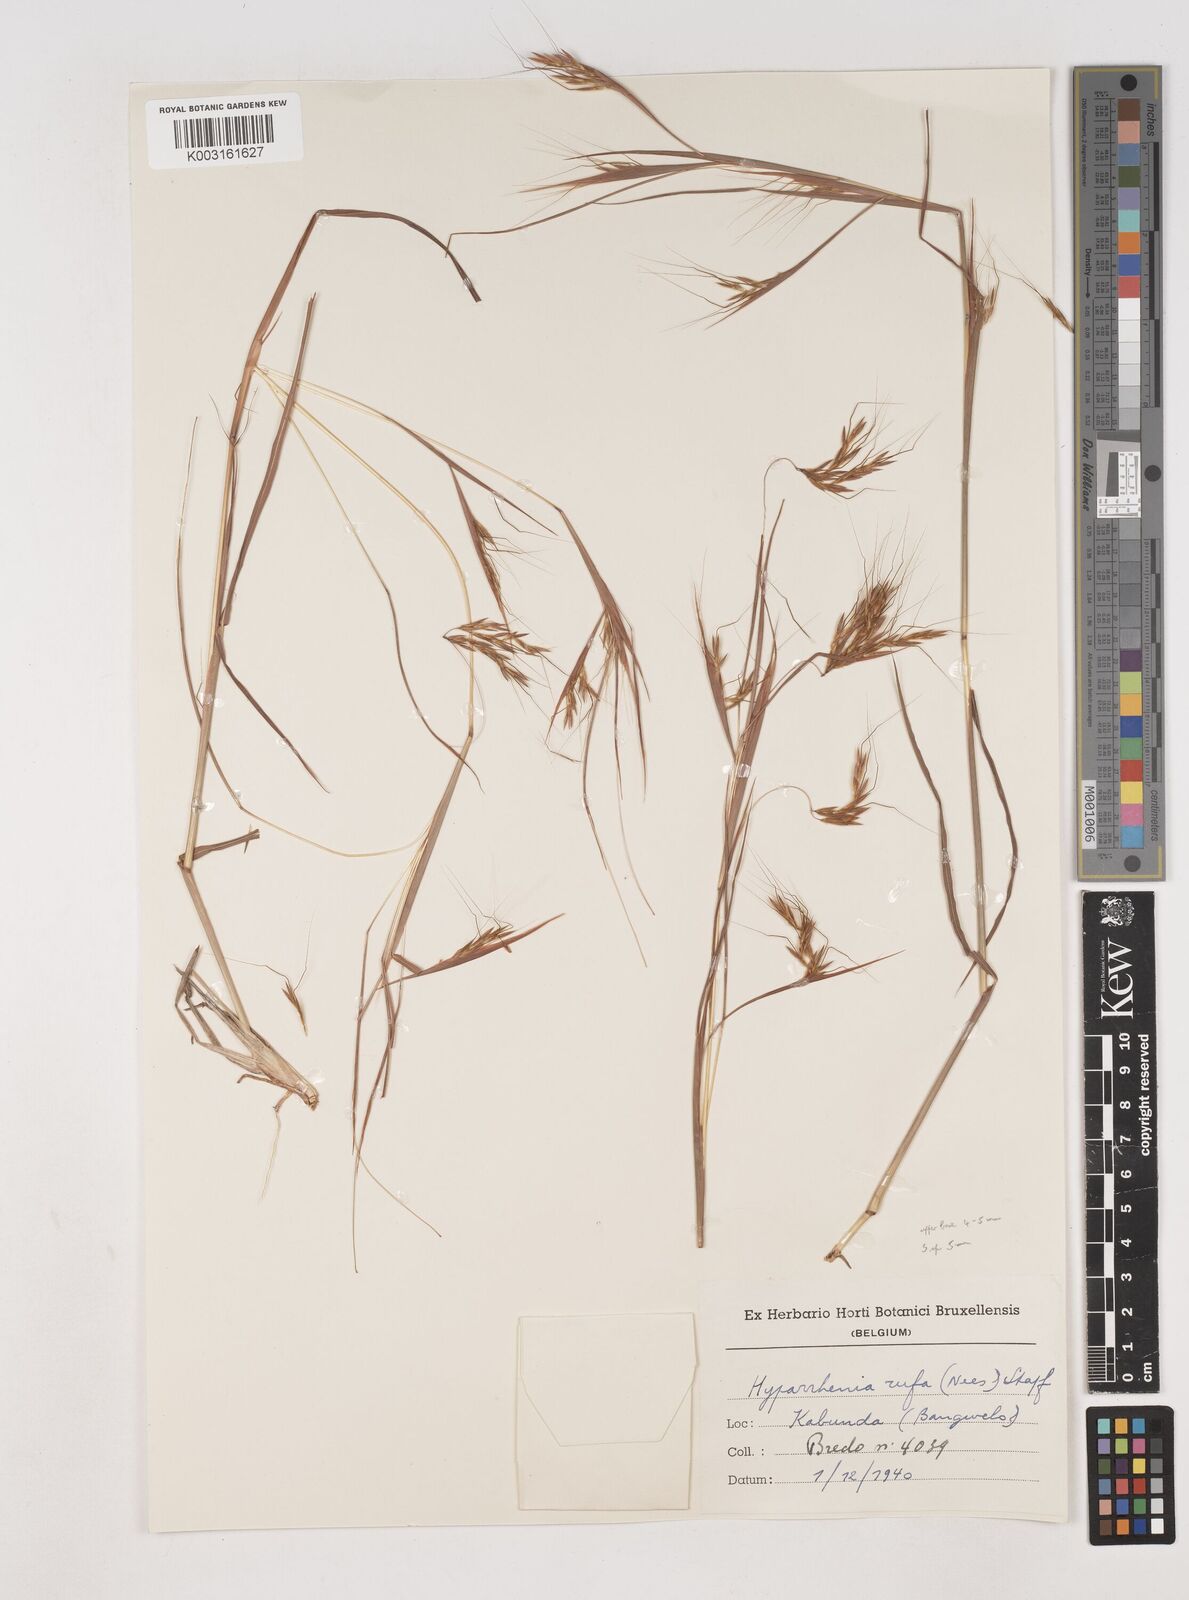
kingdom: Plantae
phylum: Tracheophyta
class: Liliopsida
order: Poales
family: Poaceae
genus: Hyparrhenia
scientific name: Hyparrhenia rufa
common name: Jaraguagrass
